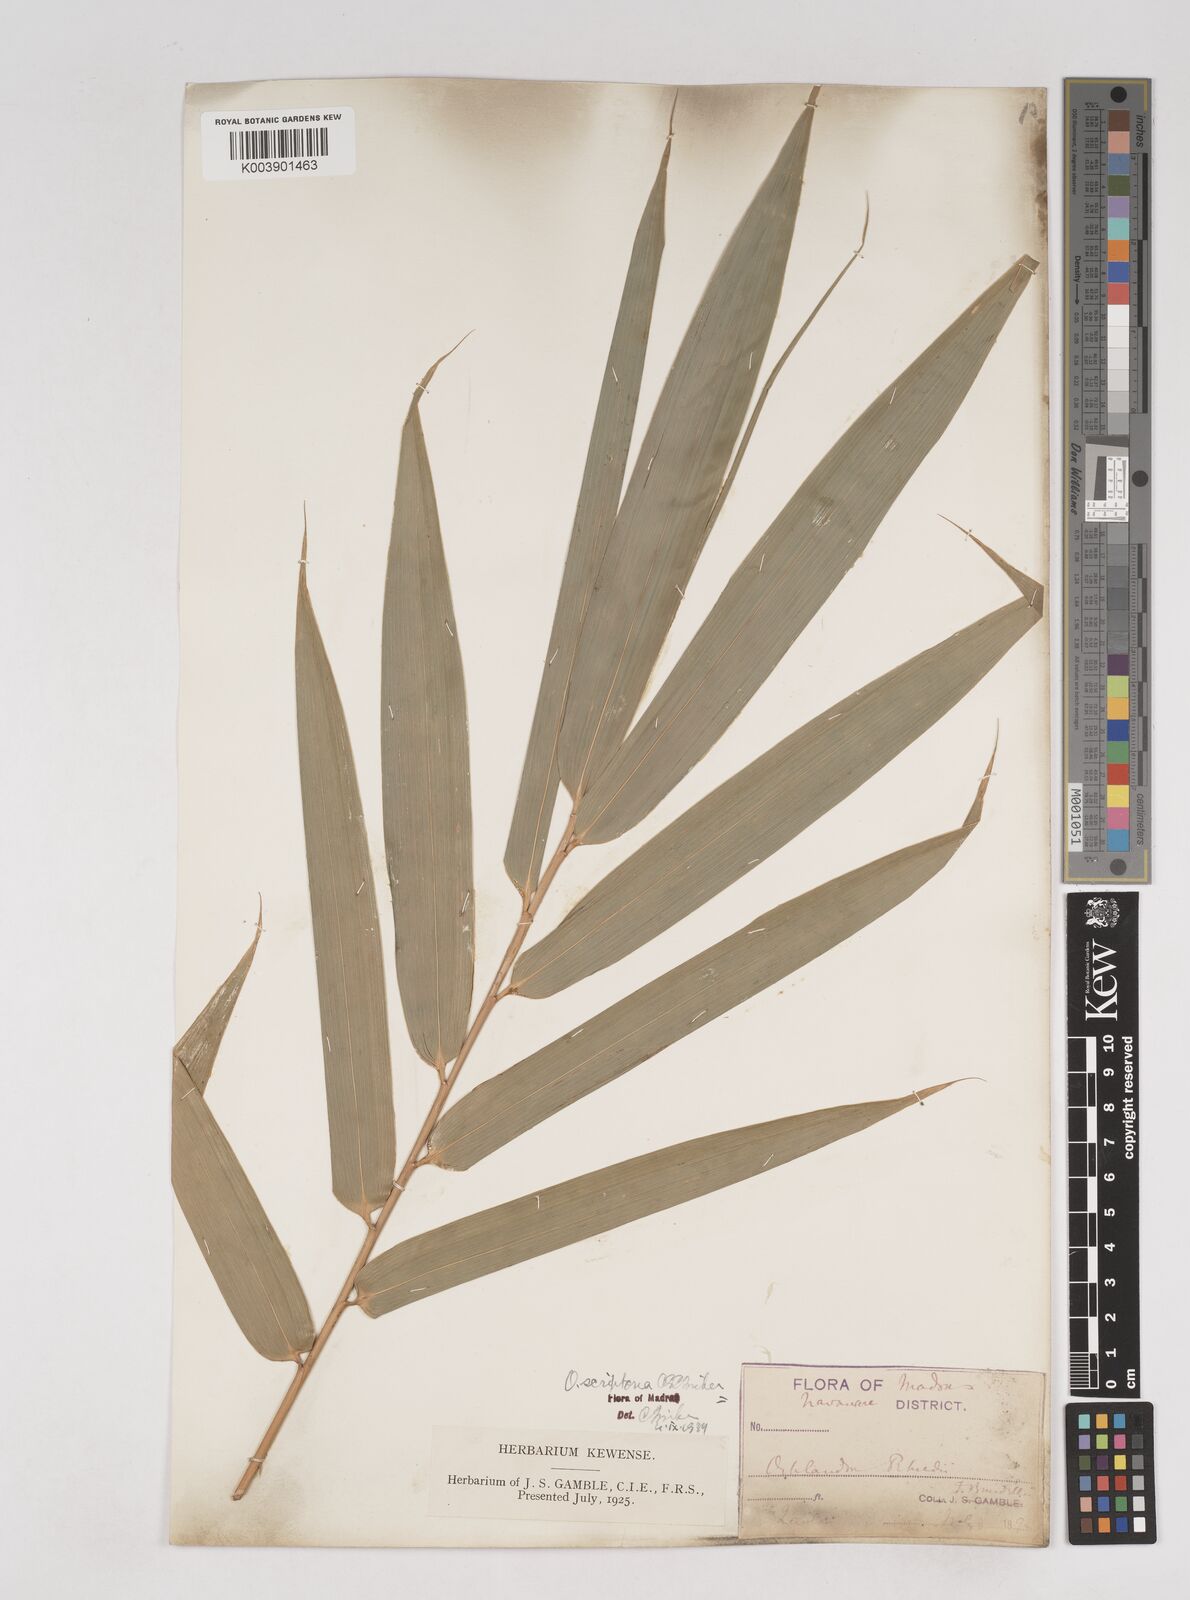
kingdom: Plantae
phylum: Tracheophyta
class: Liliopsida
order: Poales
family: Poaceae
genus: Ochlandra
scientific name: Ochlandra scriptoria
